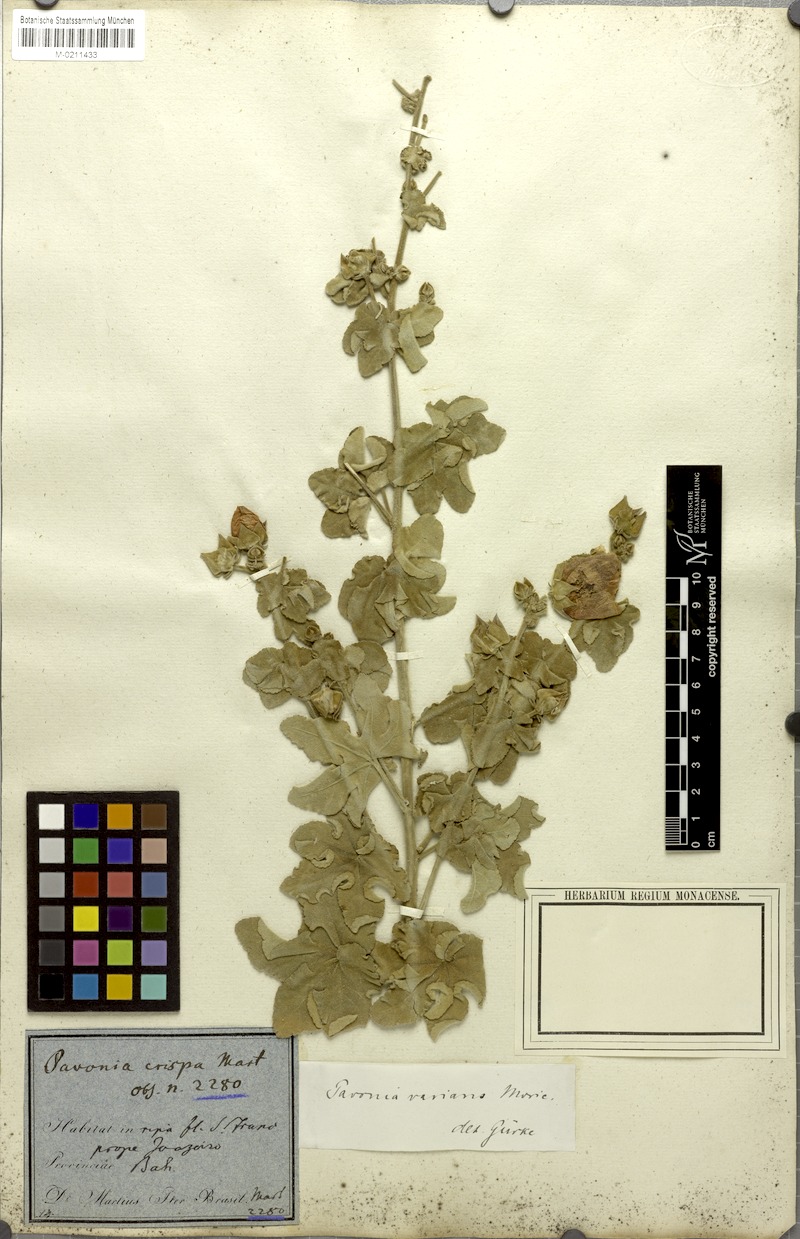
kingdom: Plantae
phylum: Tracheophyta
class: Magnoliopsida
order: Malvales
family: Malvaceae
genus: Pavonia
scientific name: Pavonia varians
